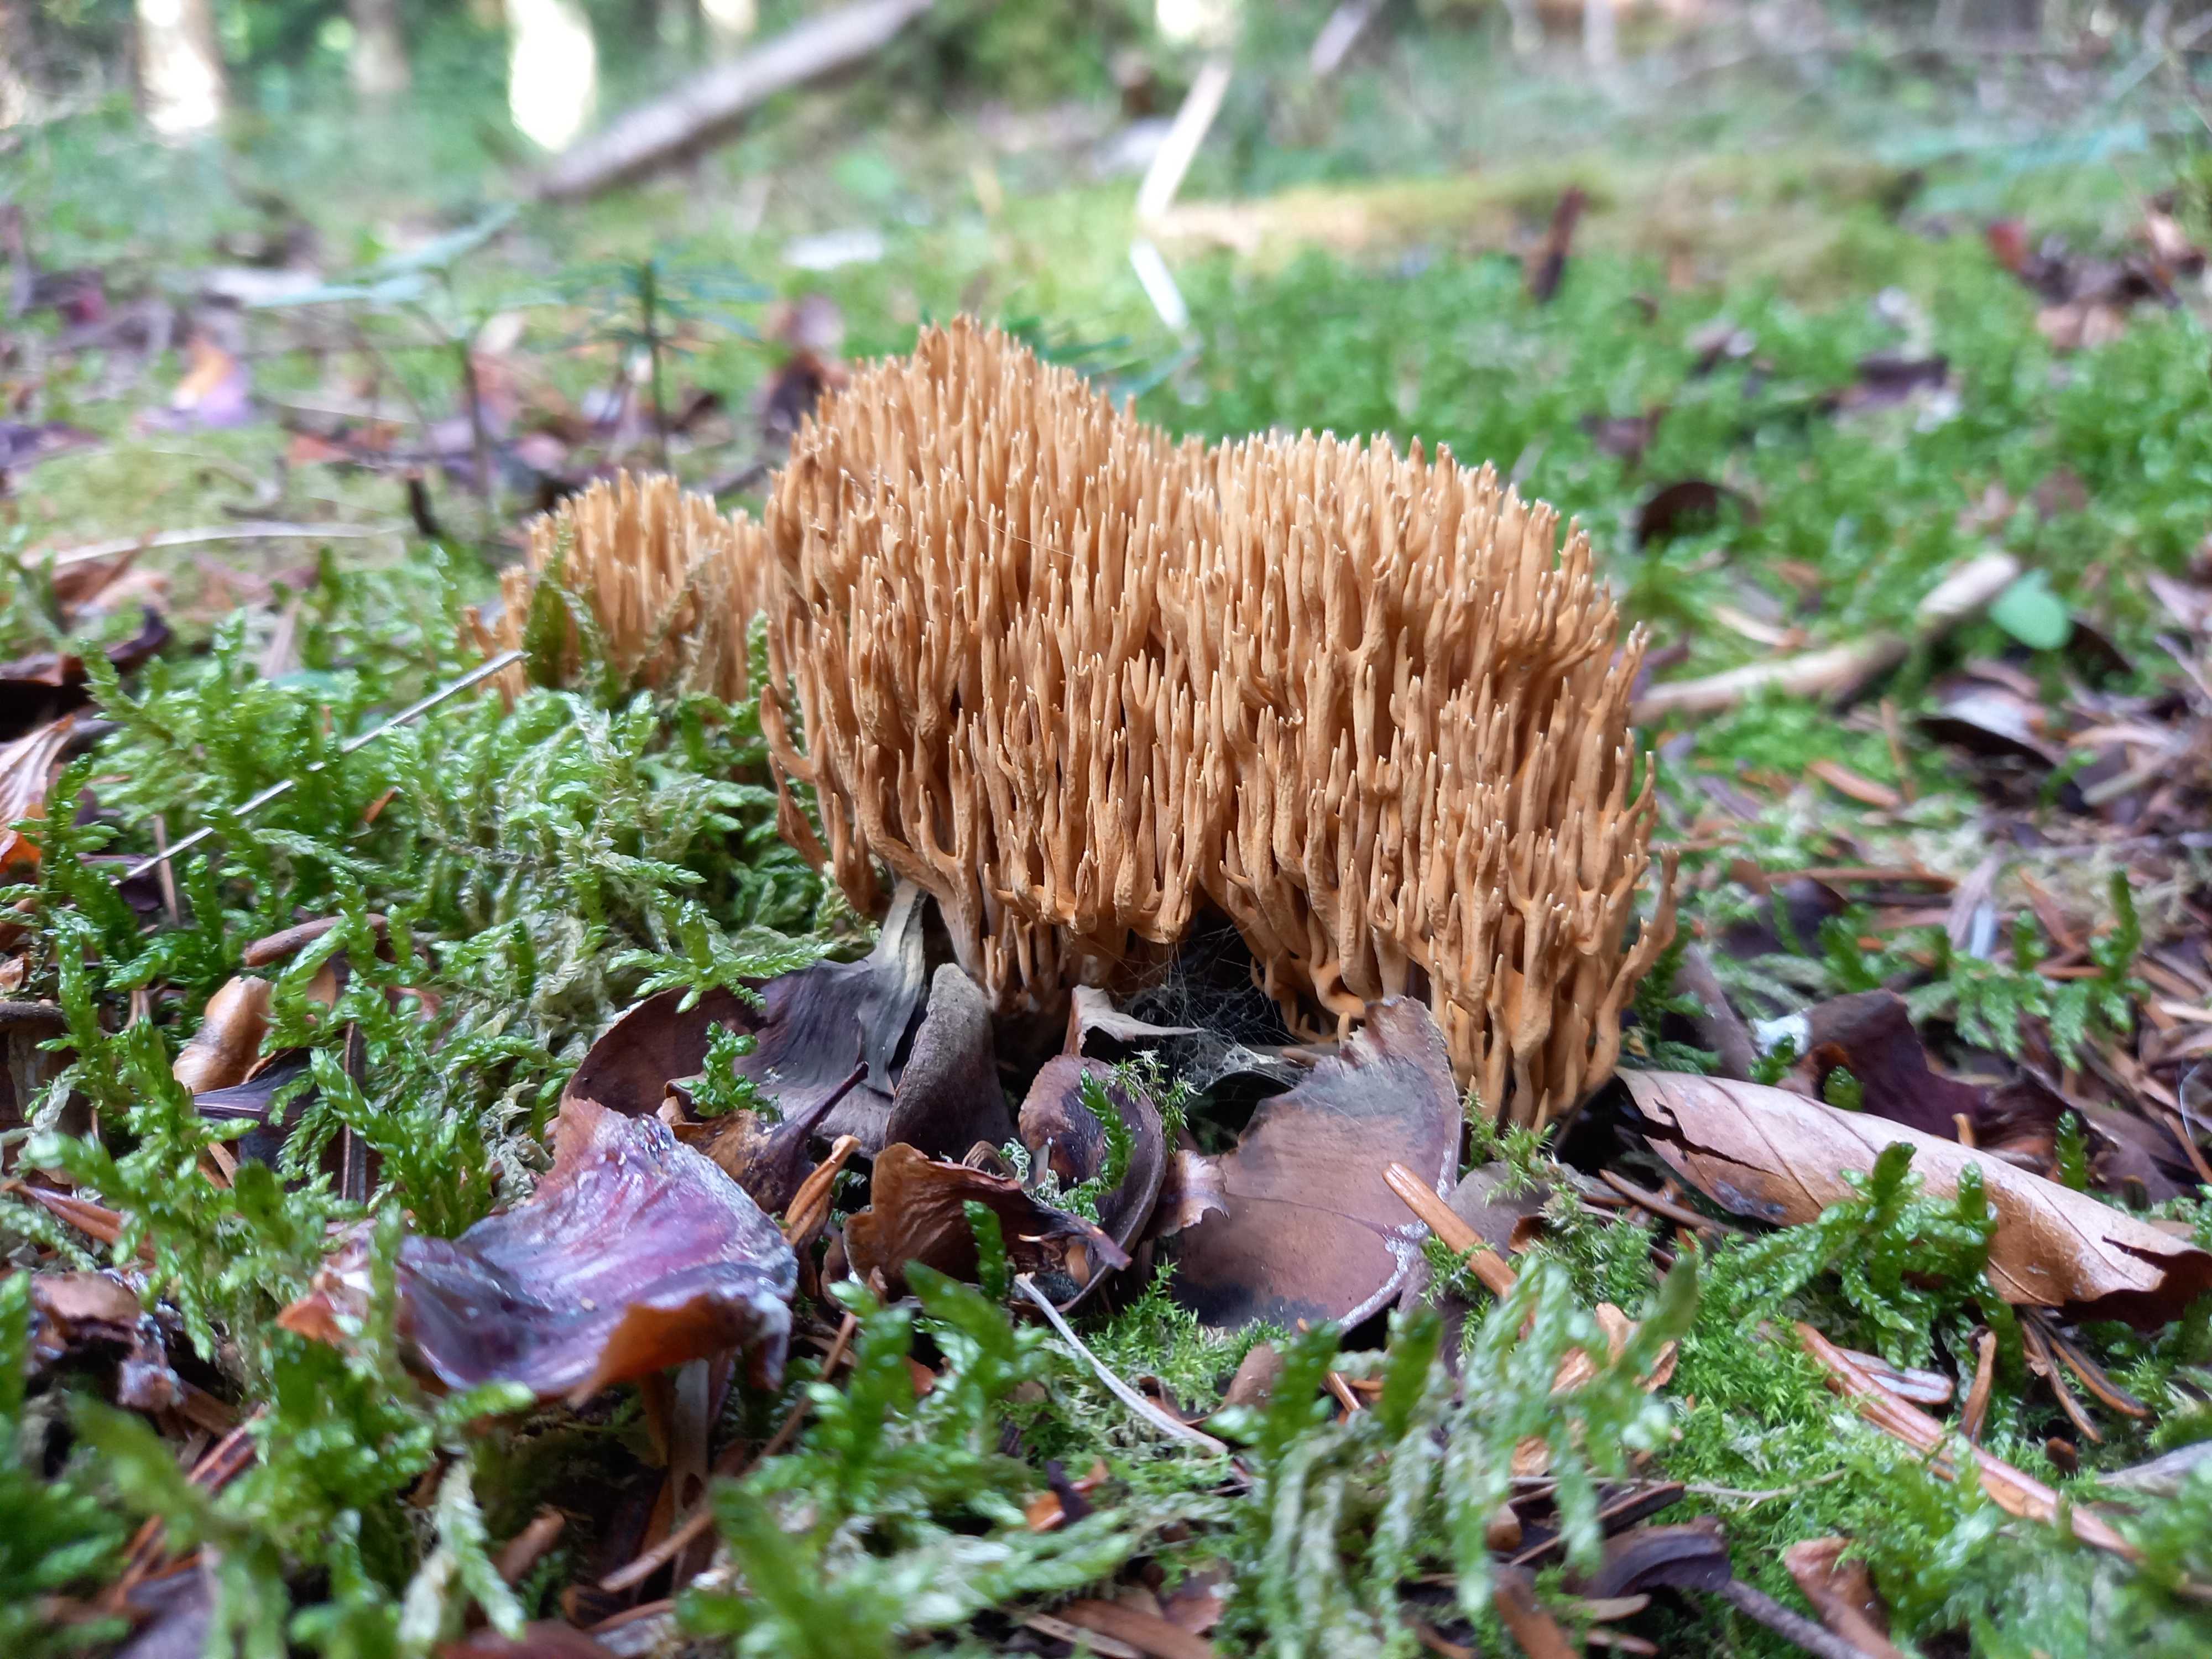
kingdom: Fungi
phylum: Basidiomycota
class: Agaricomycetes
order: Gomphales
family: Gomphaceae
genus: Phaeoclavulina
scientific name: Phaeoclavulina eumorpha
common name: gran-koralsvamp
